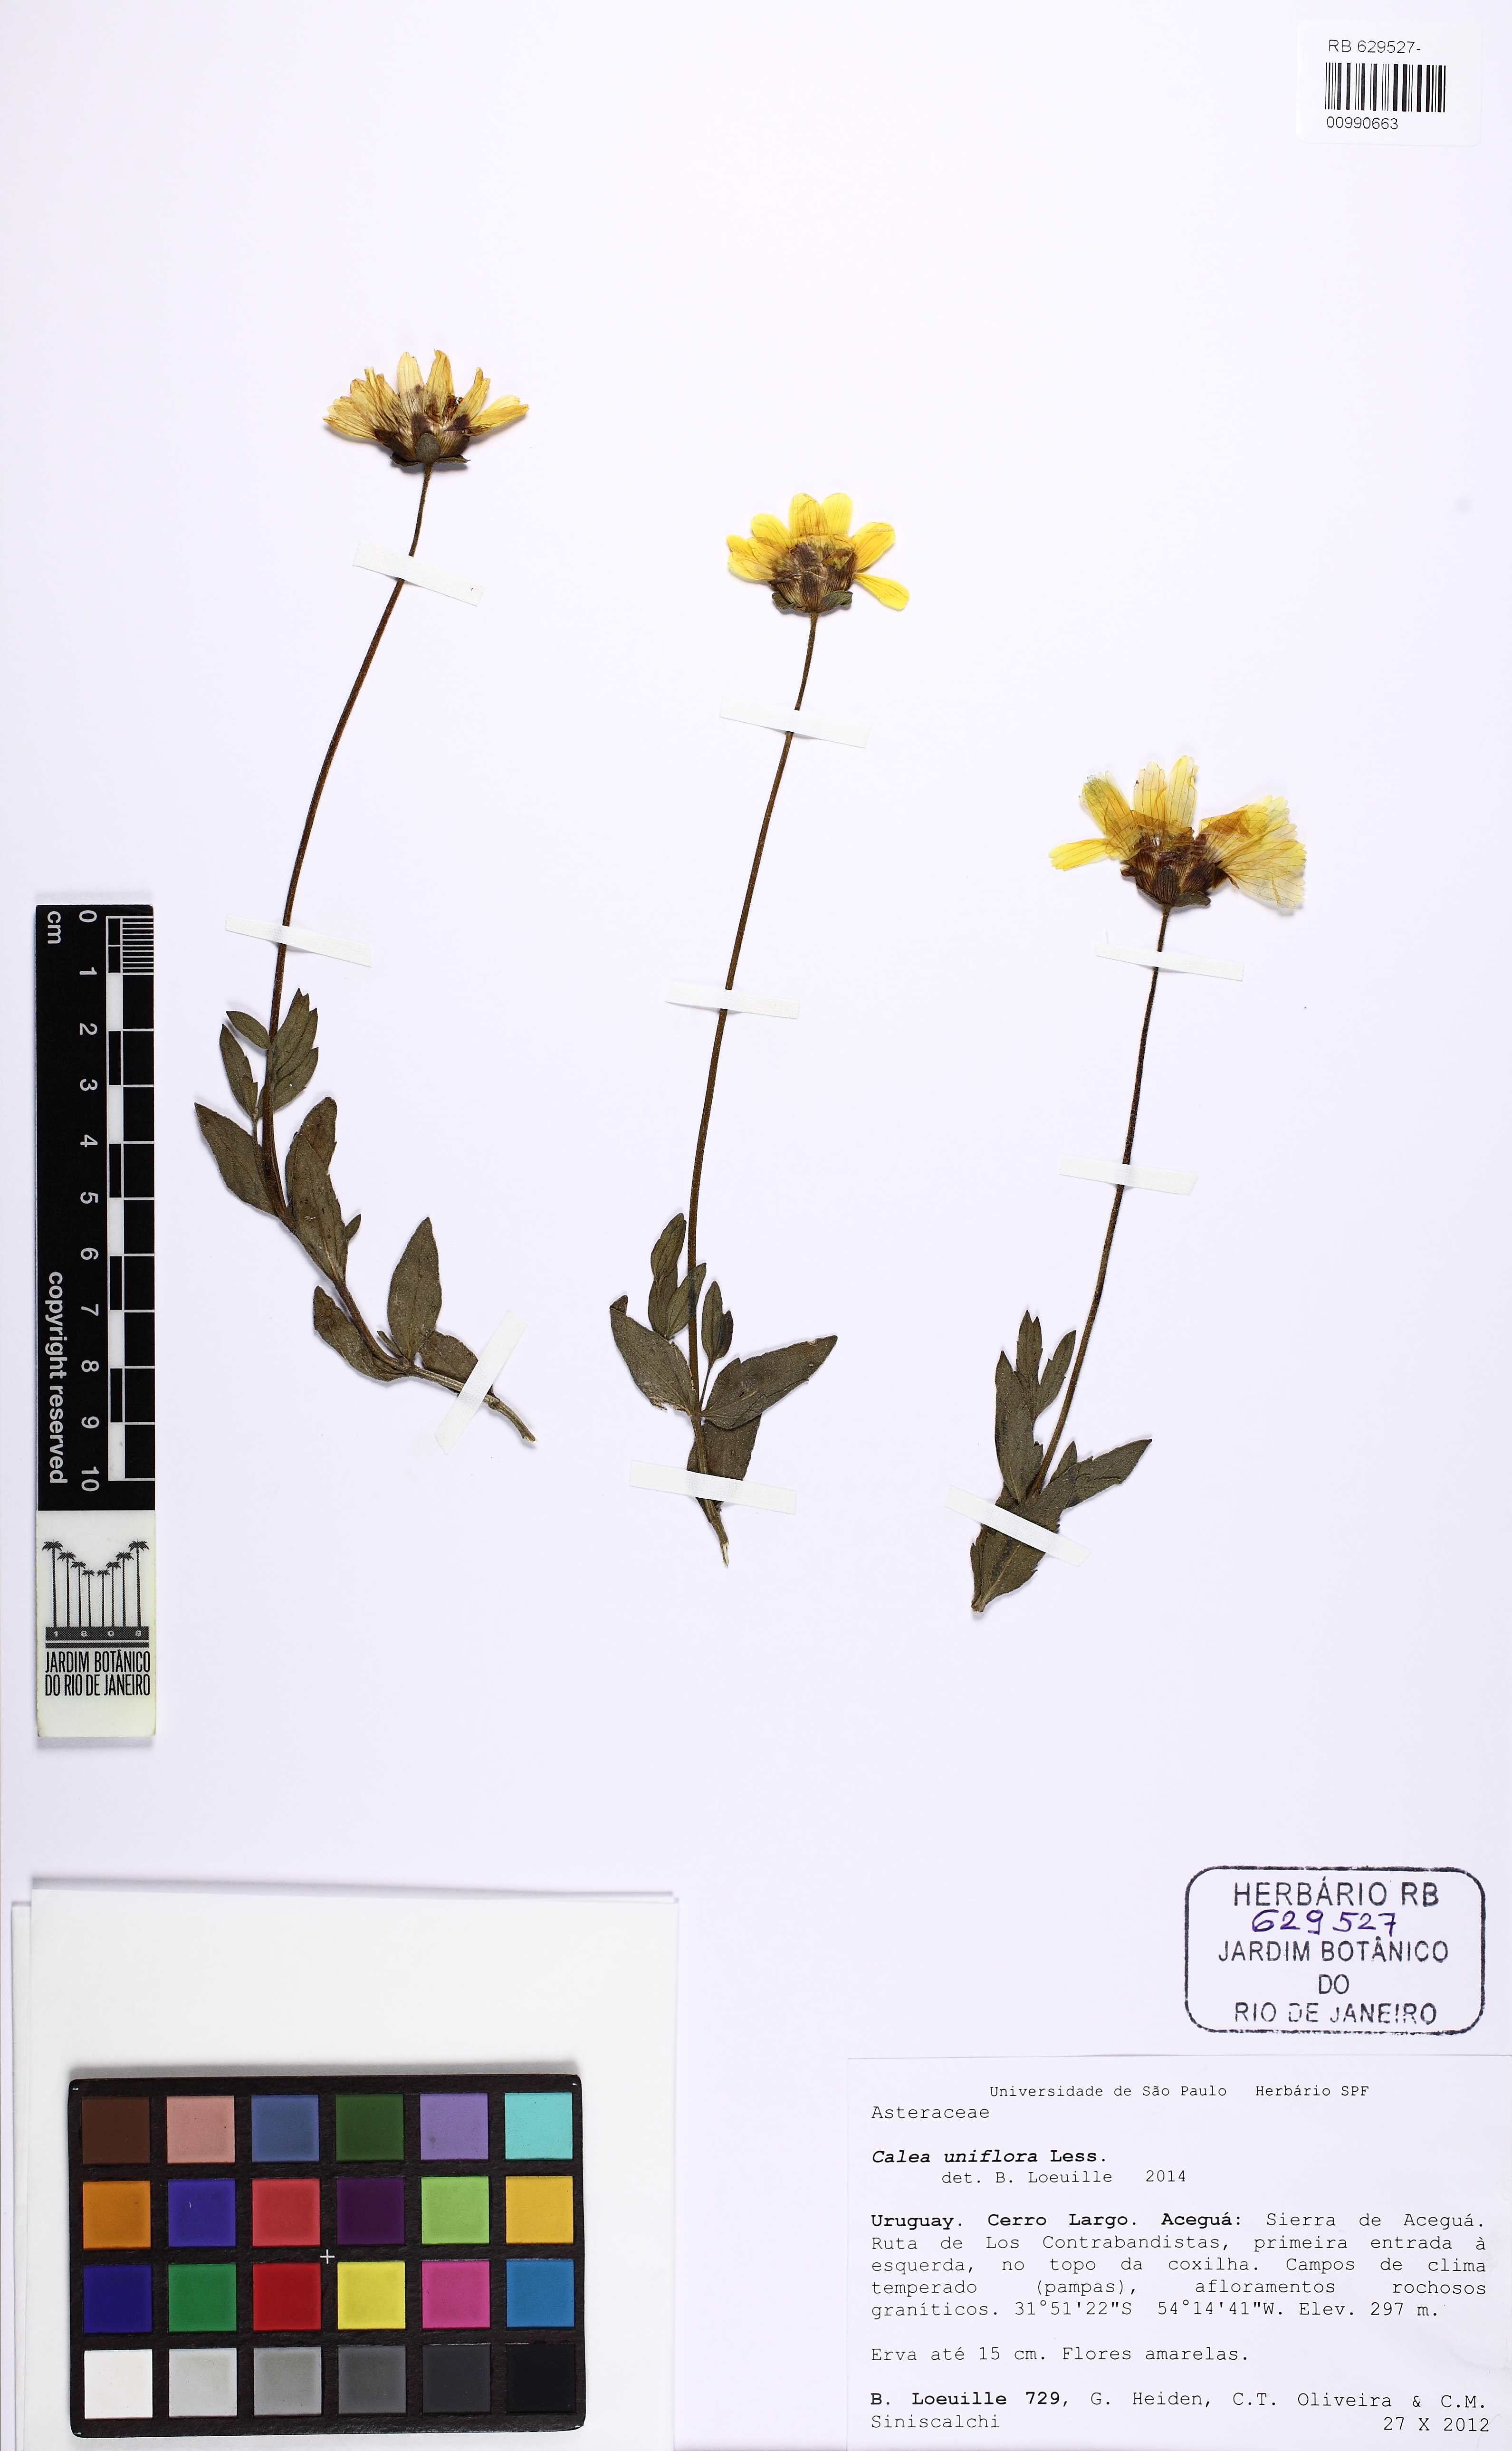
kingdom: Plantae
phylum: Tracheophyta
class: Magnoliopsida
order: Asterales
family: Asteraceae
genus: Calea
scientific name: Calea uniflora
